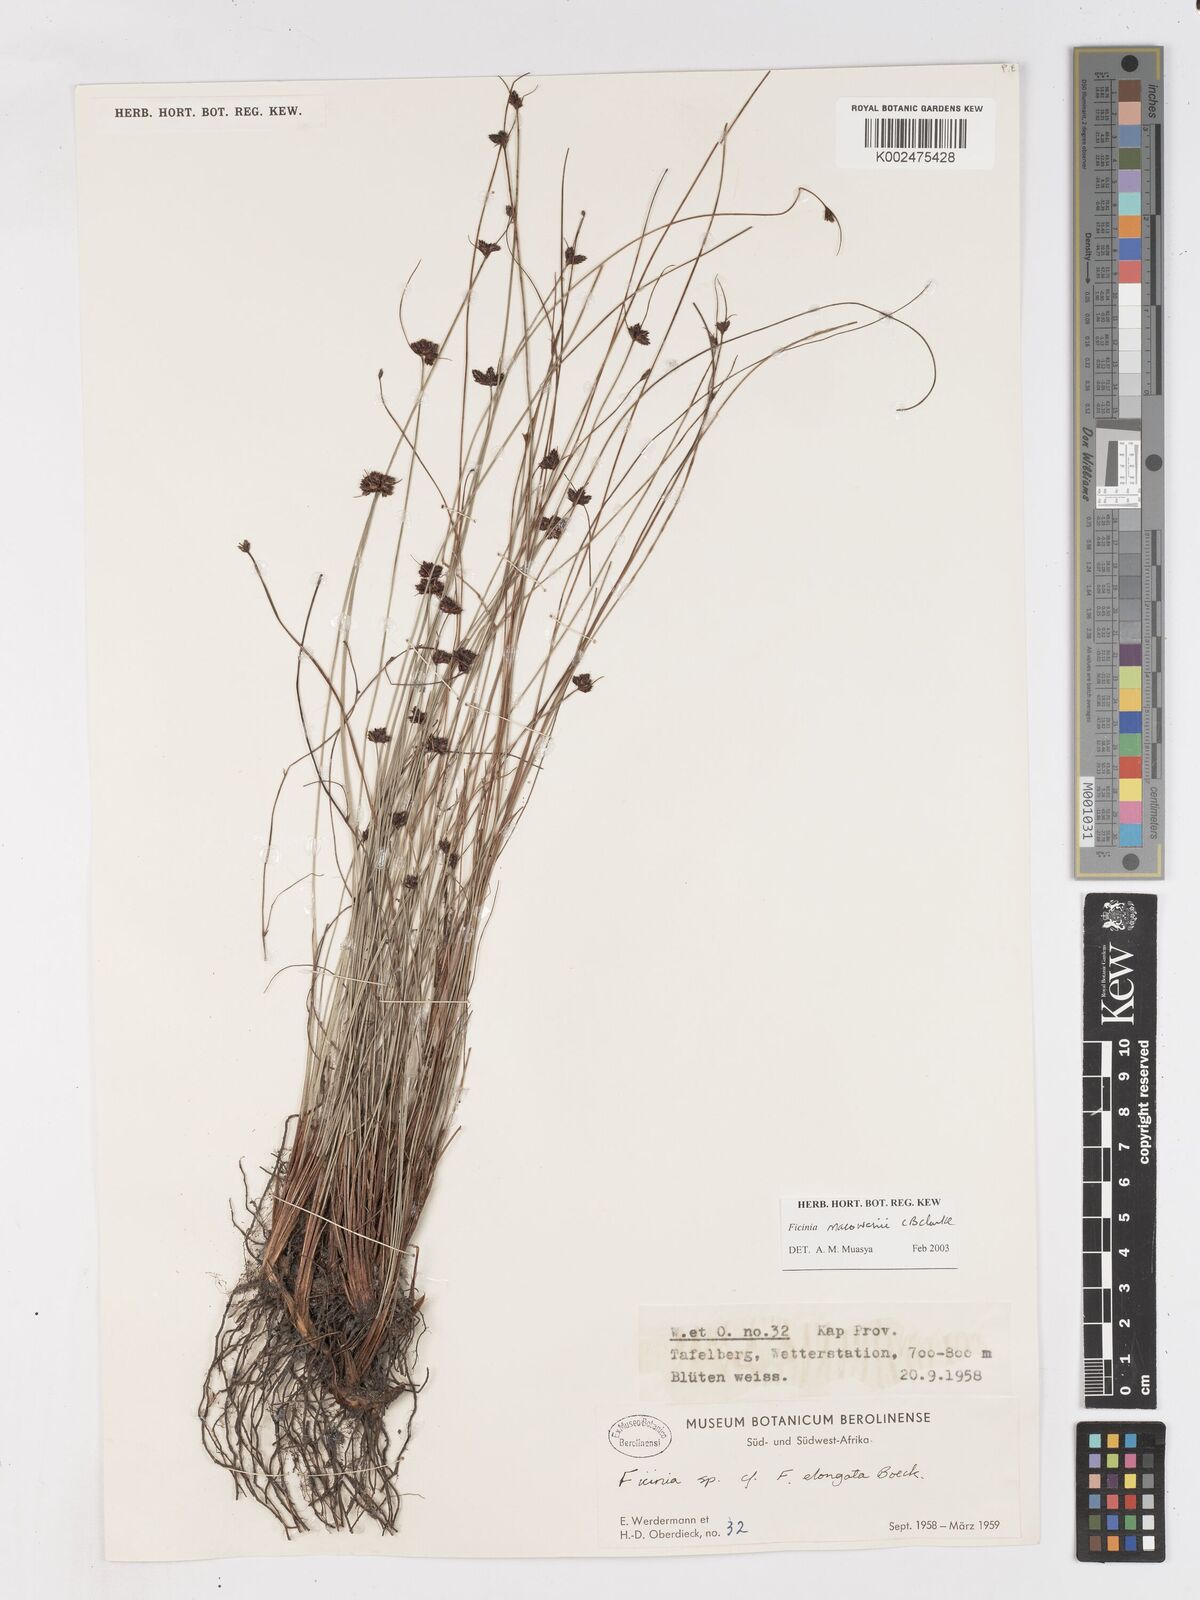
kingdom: Plantae
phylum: Tracheophyta
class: Liliopsida
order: Poales
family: Cyperaceae
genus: Ficinia
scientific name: Ficinia acuminata
